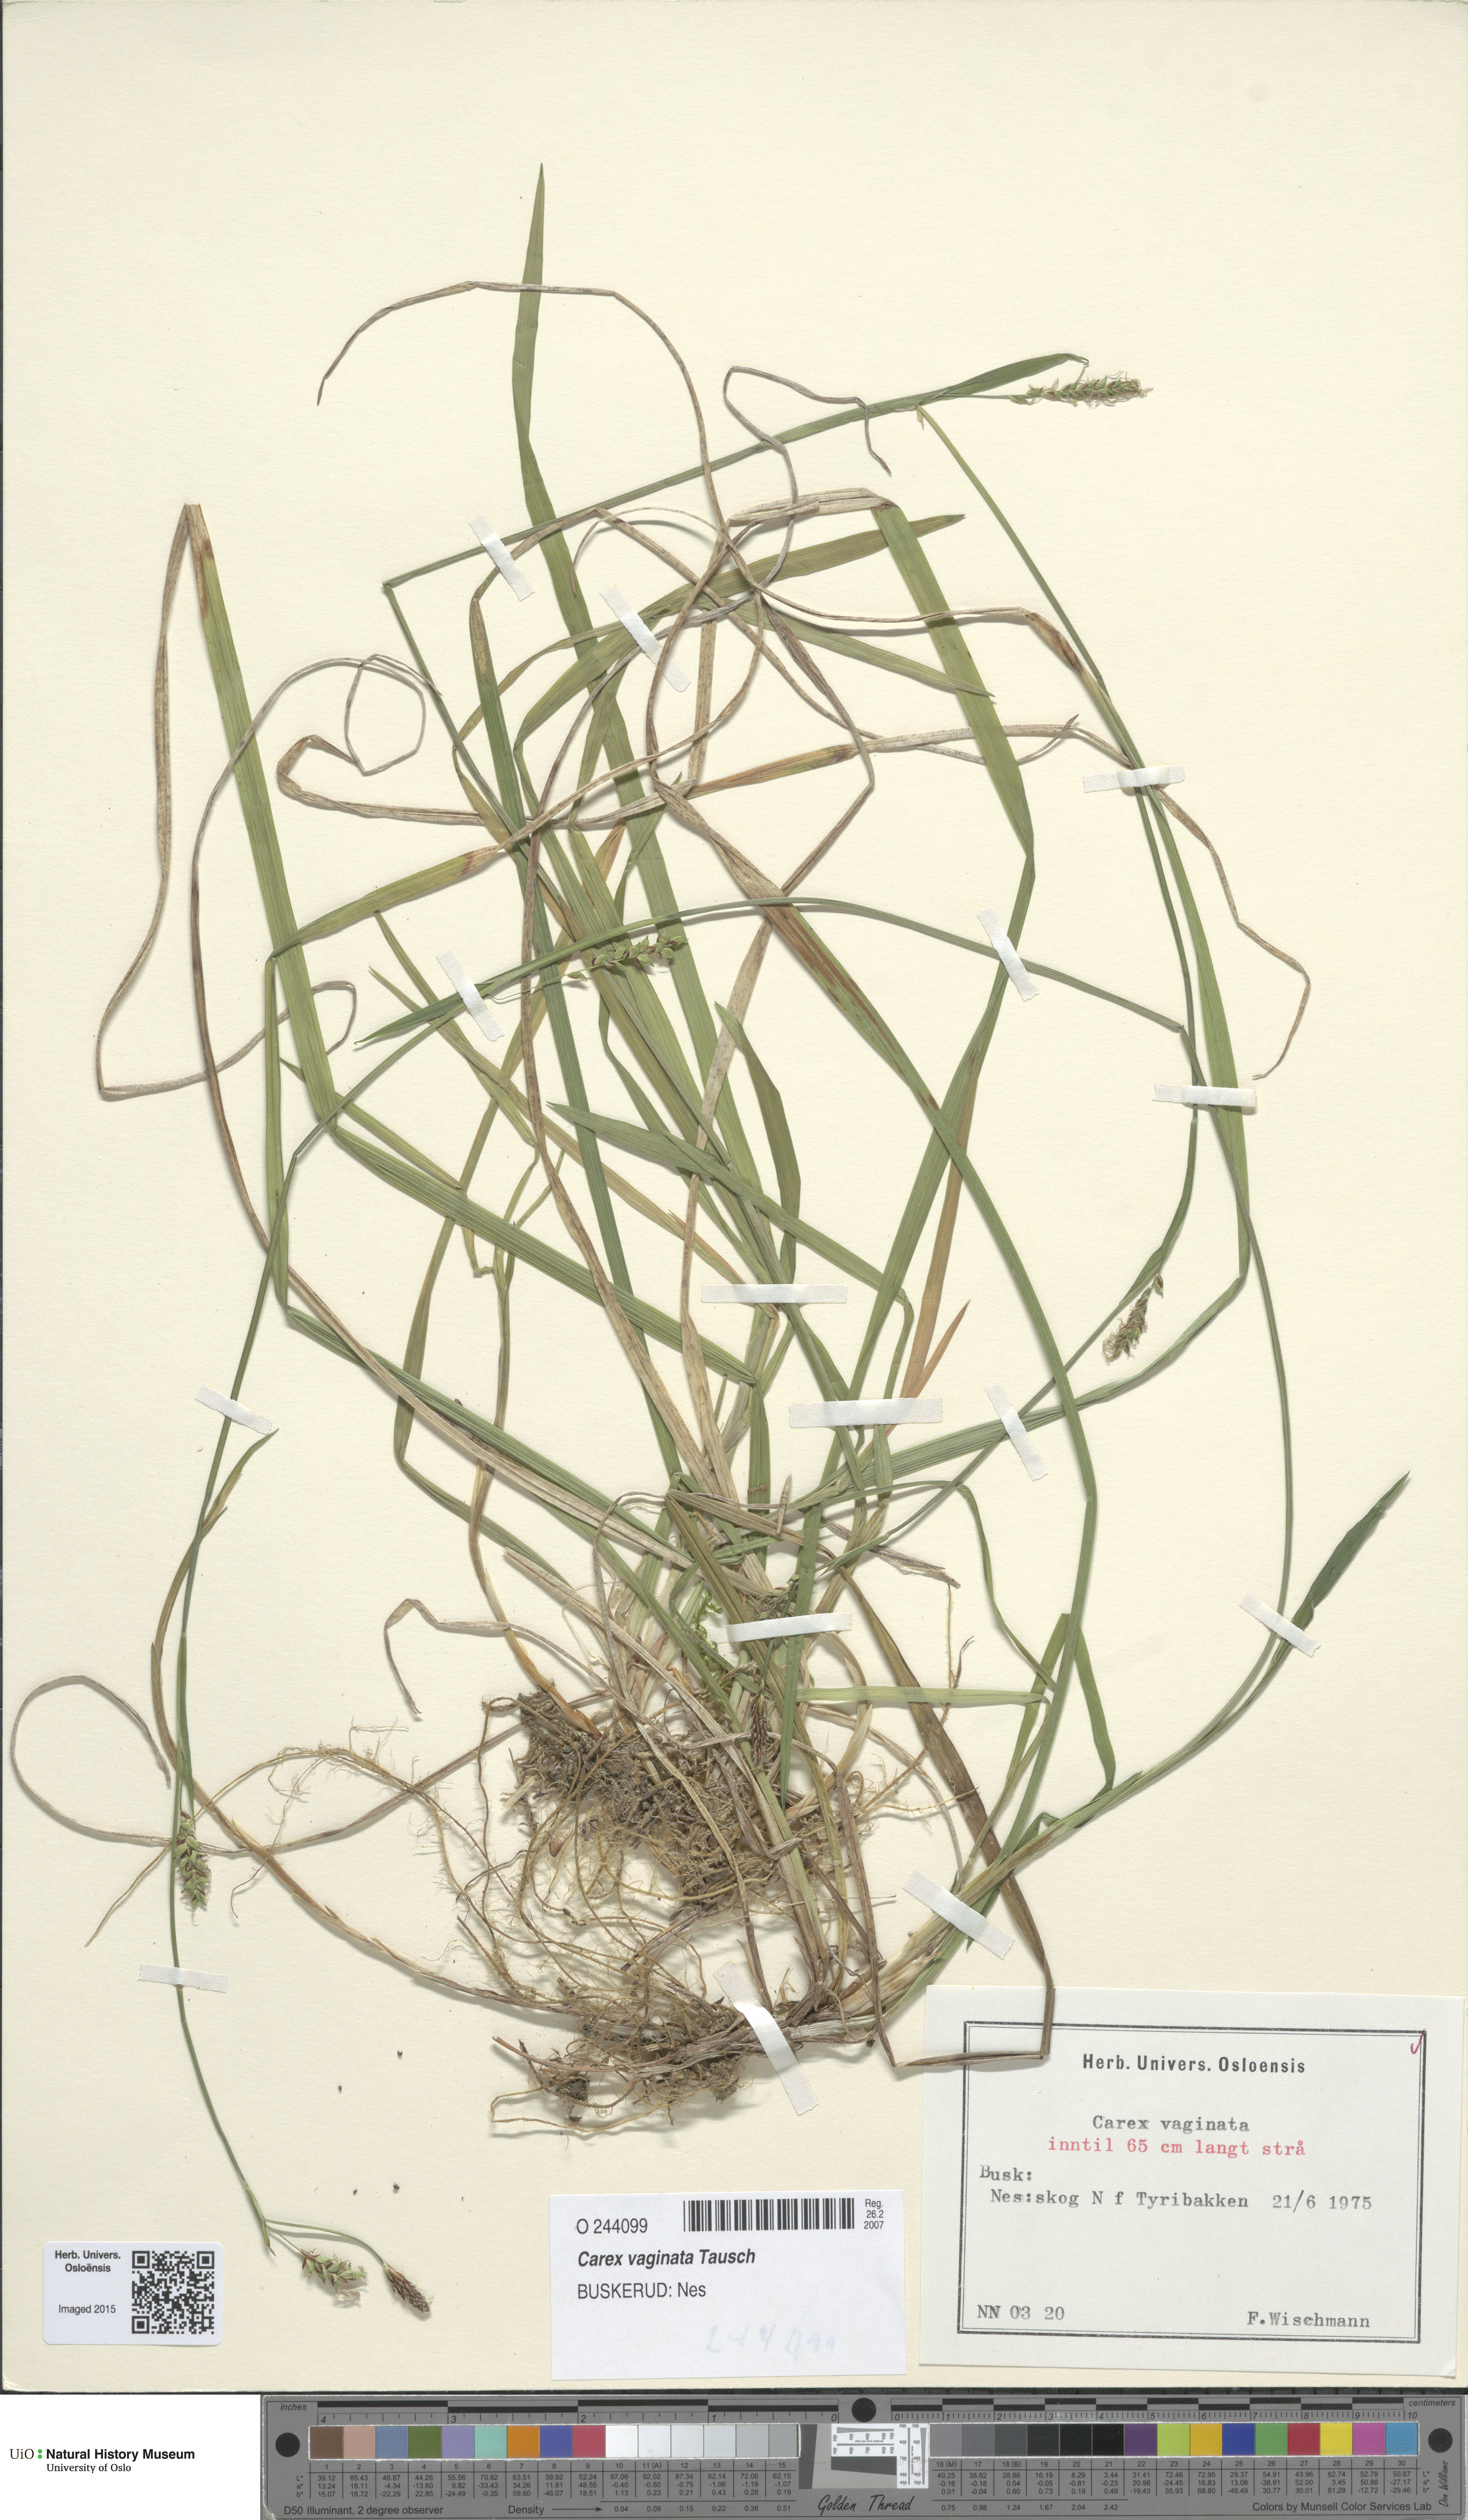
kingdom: Plantae
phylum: Tracheophyta
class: Liliopsida
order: Poales
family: Cyperaceae
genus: Carex
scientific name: Carex vaginata
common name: Sheathed sedge
